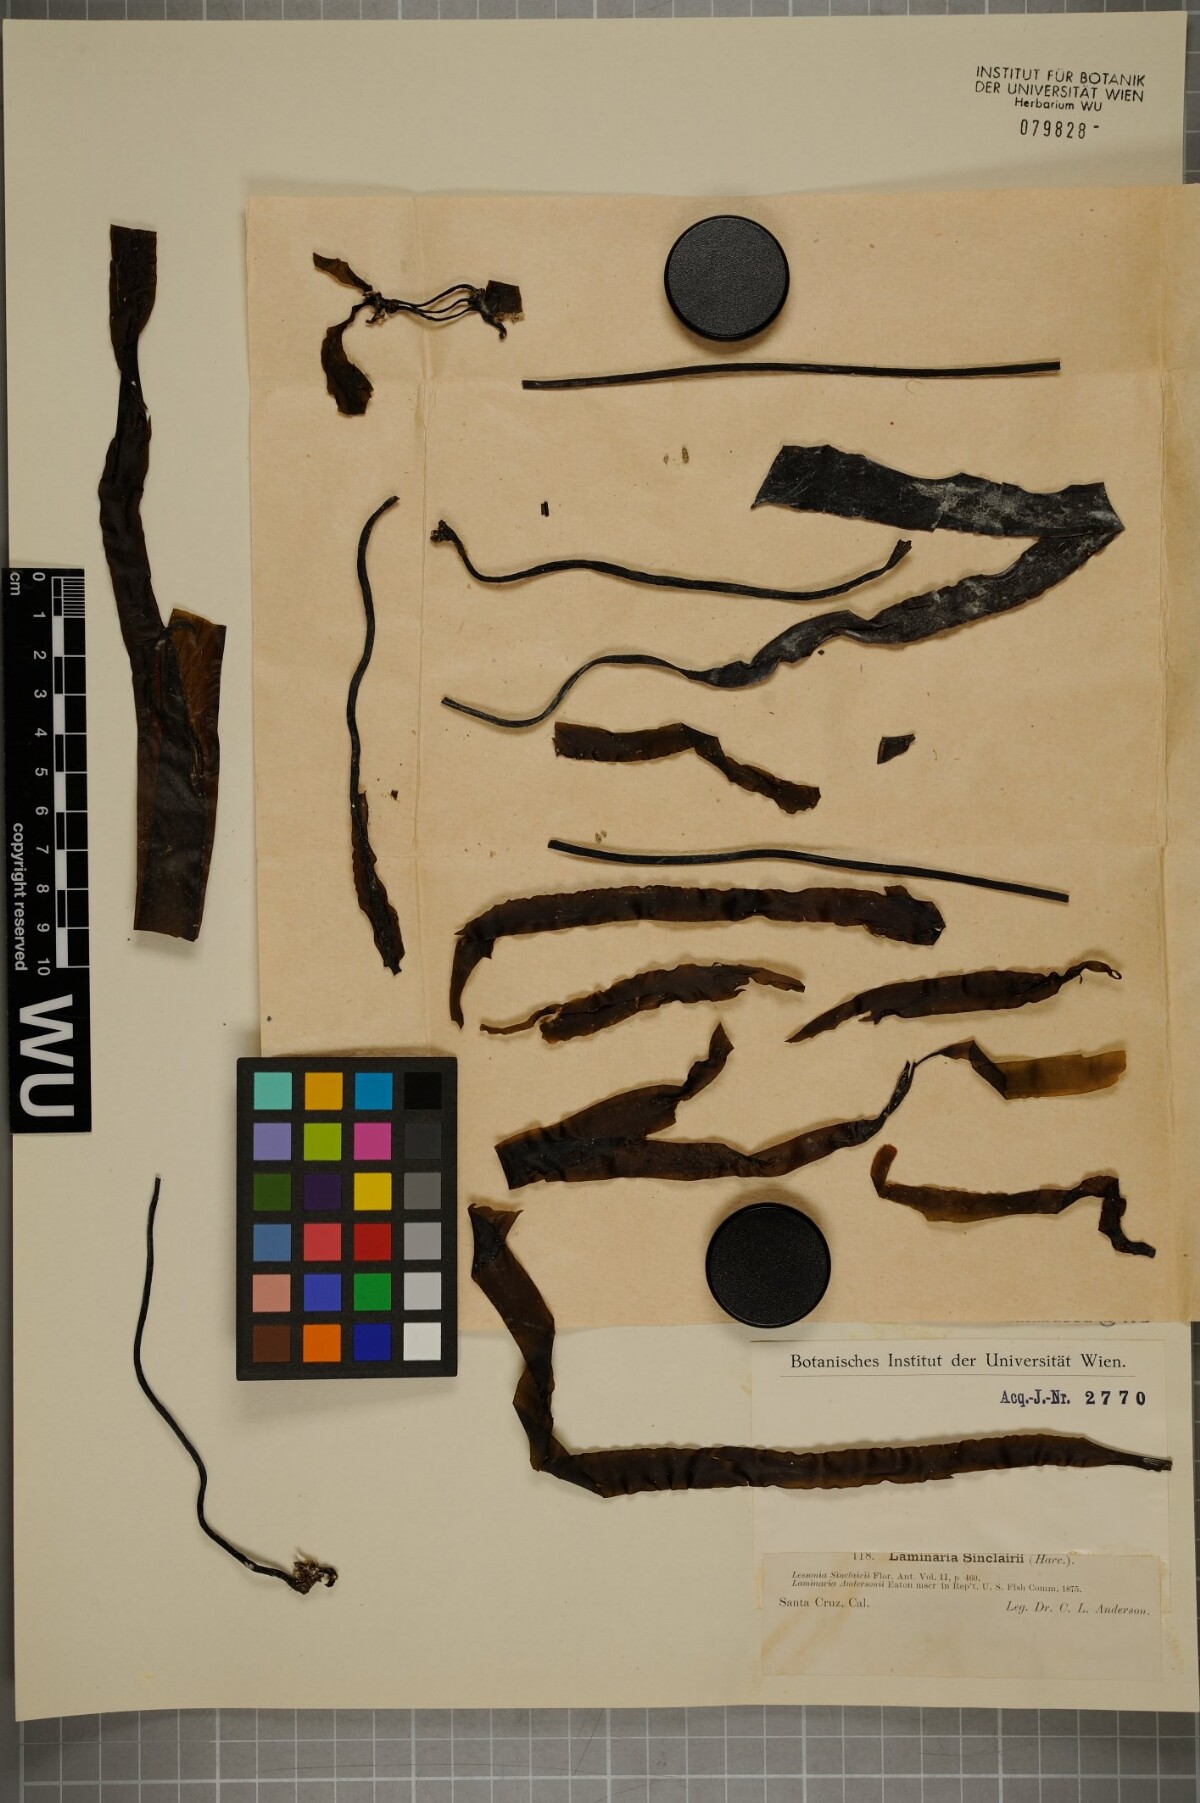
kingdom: Chromista
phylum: Ochrophyta
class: Phaeophyceae
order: Laminariales
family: Laminariaceae
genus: Laminaria
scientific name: Laminaria sinclairii
